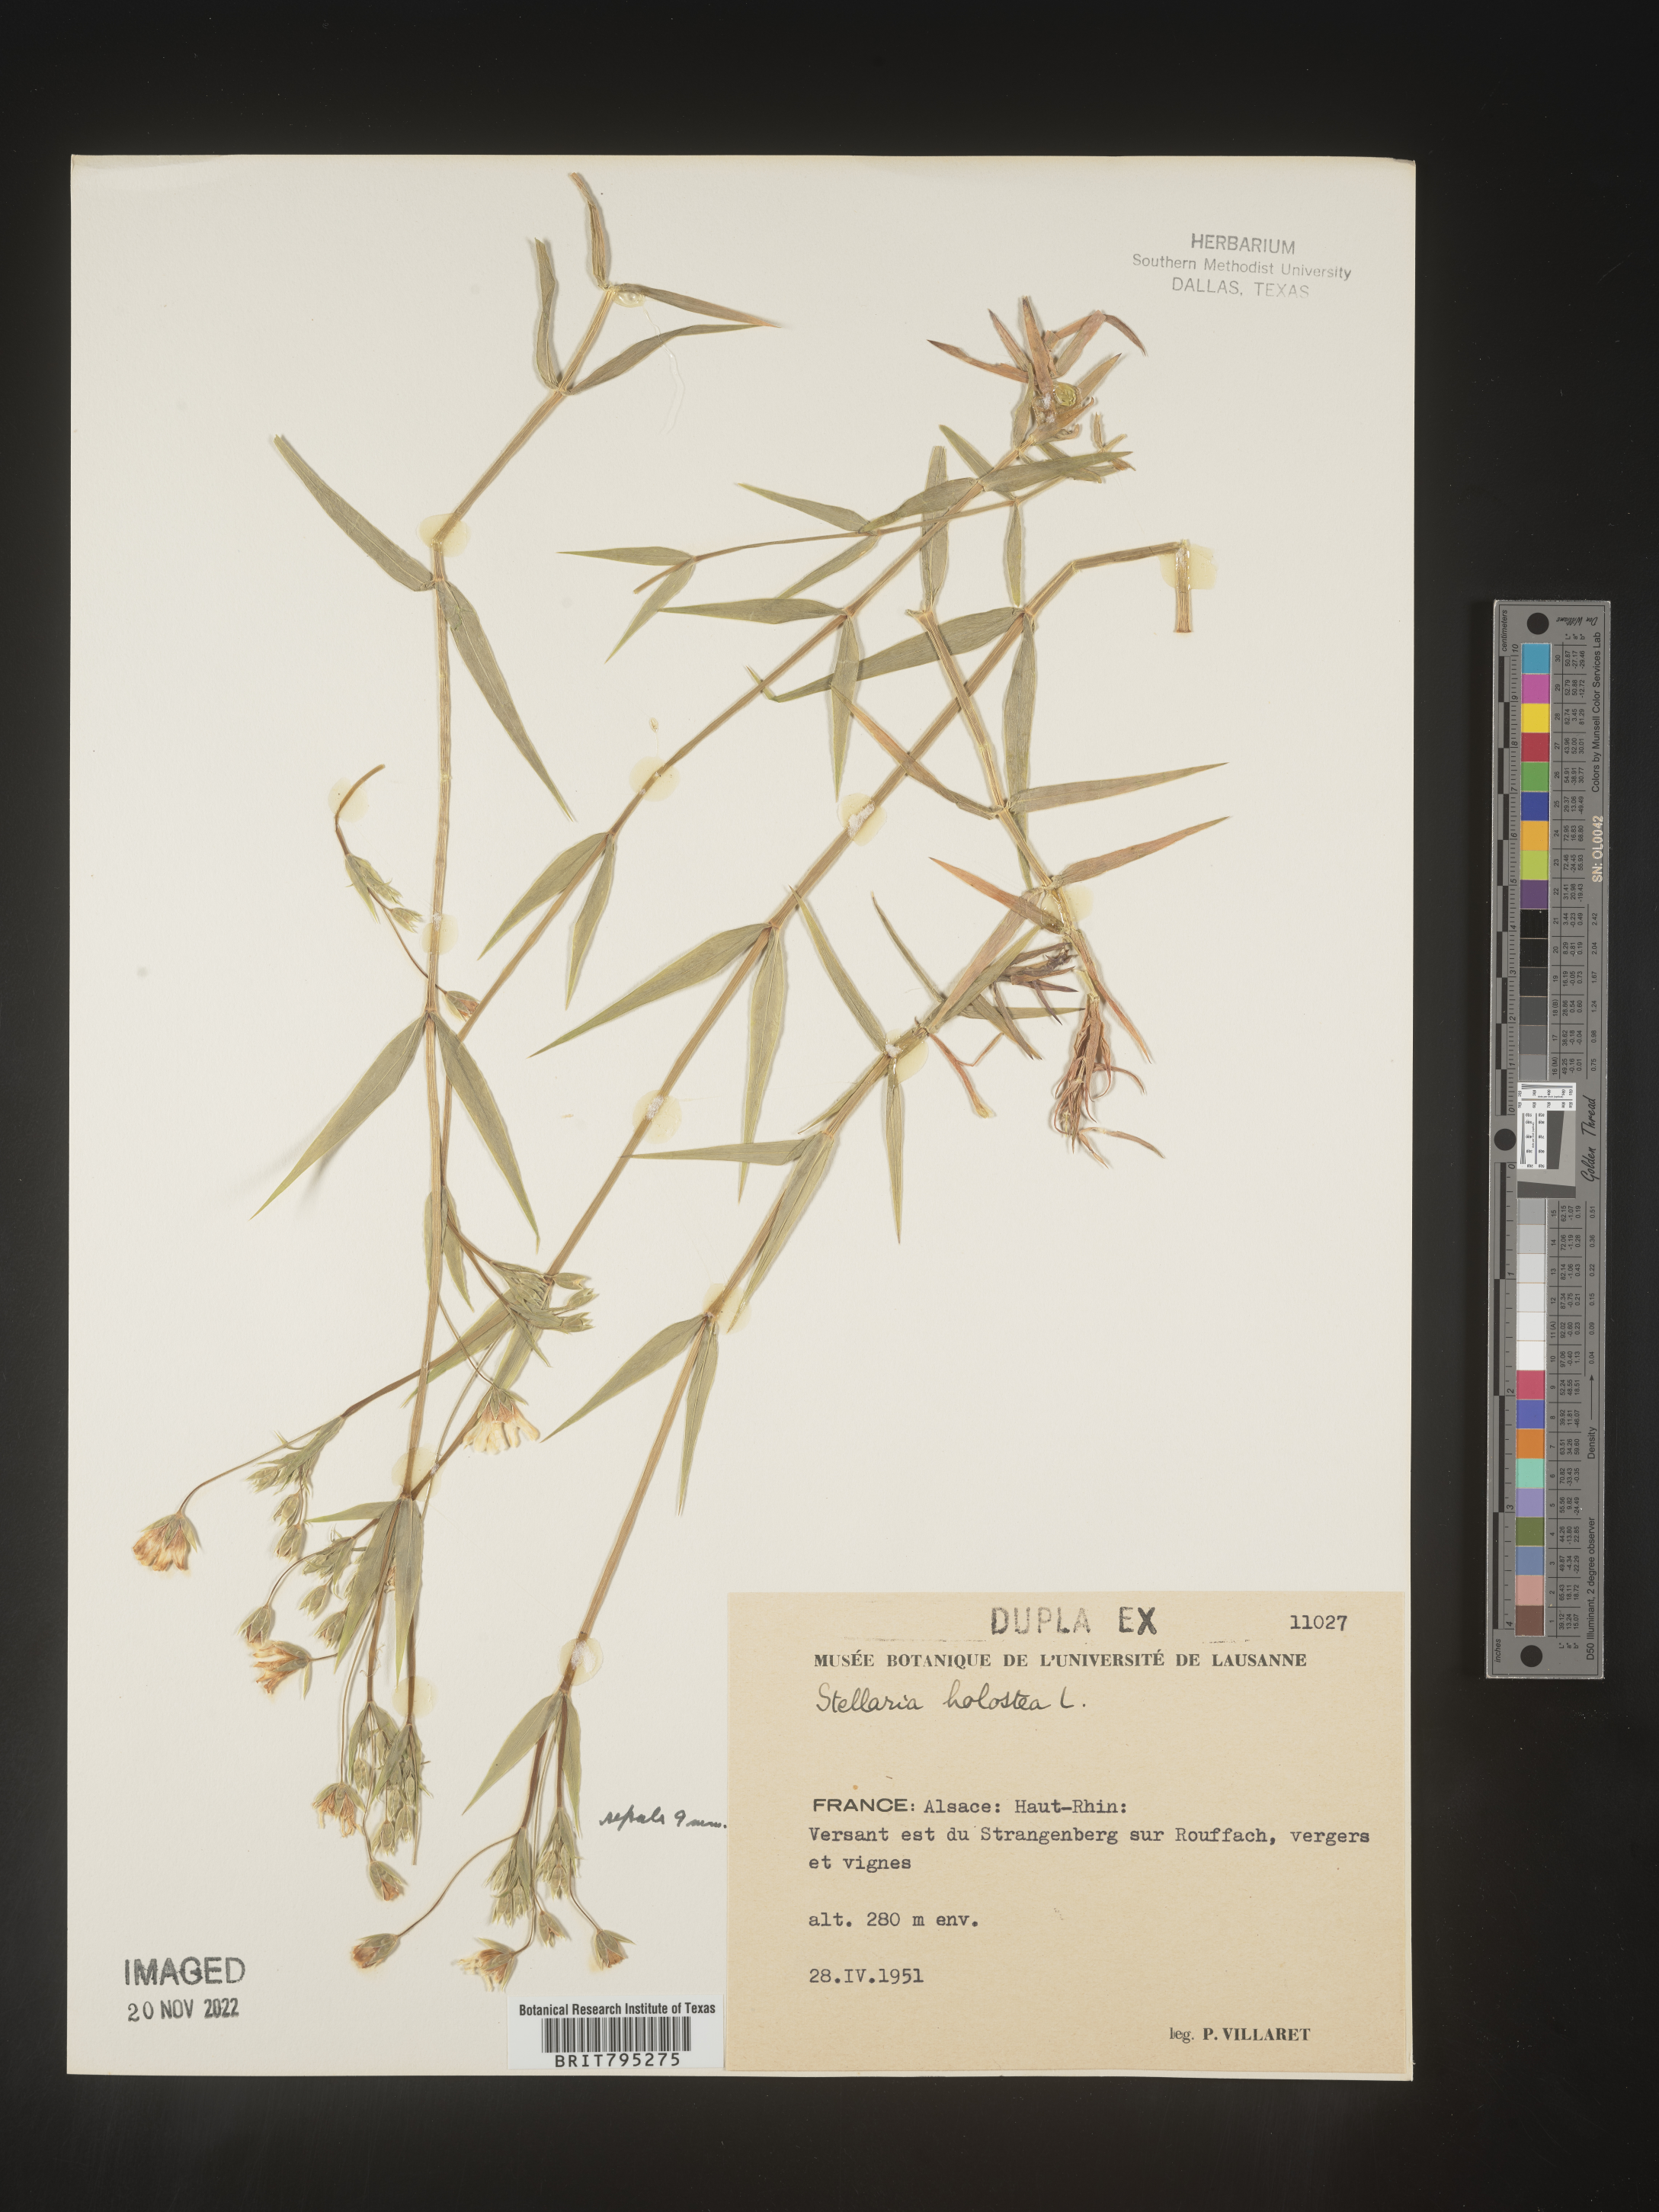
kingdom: Plantae
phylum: Tracheophyta
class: Magnoliopsida
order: Caryophyllales
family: Caryophyllaceae
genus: Stellaria
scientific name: Stellaria
